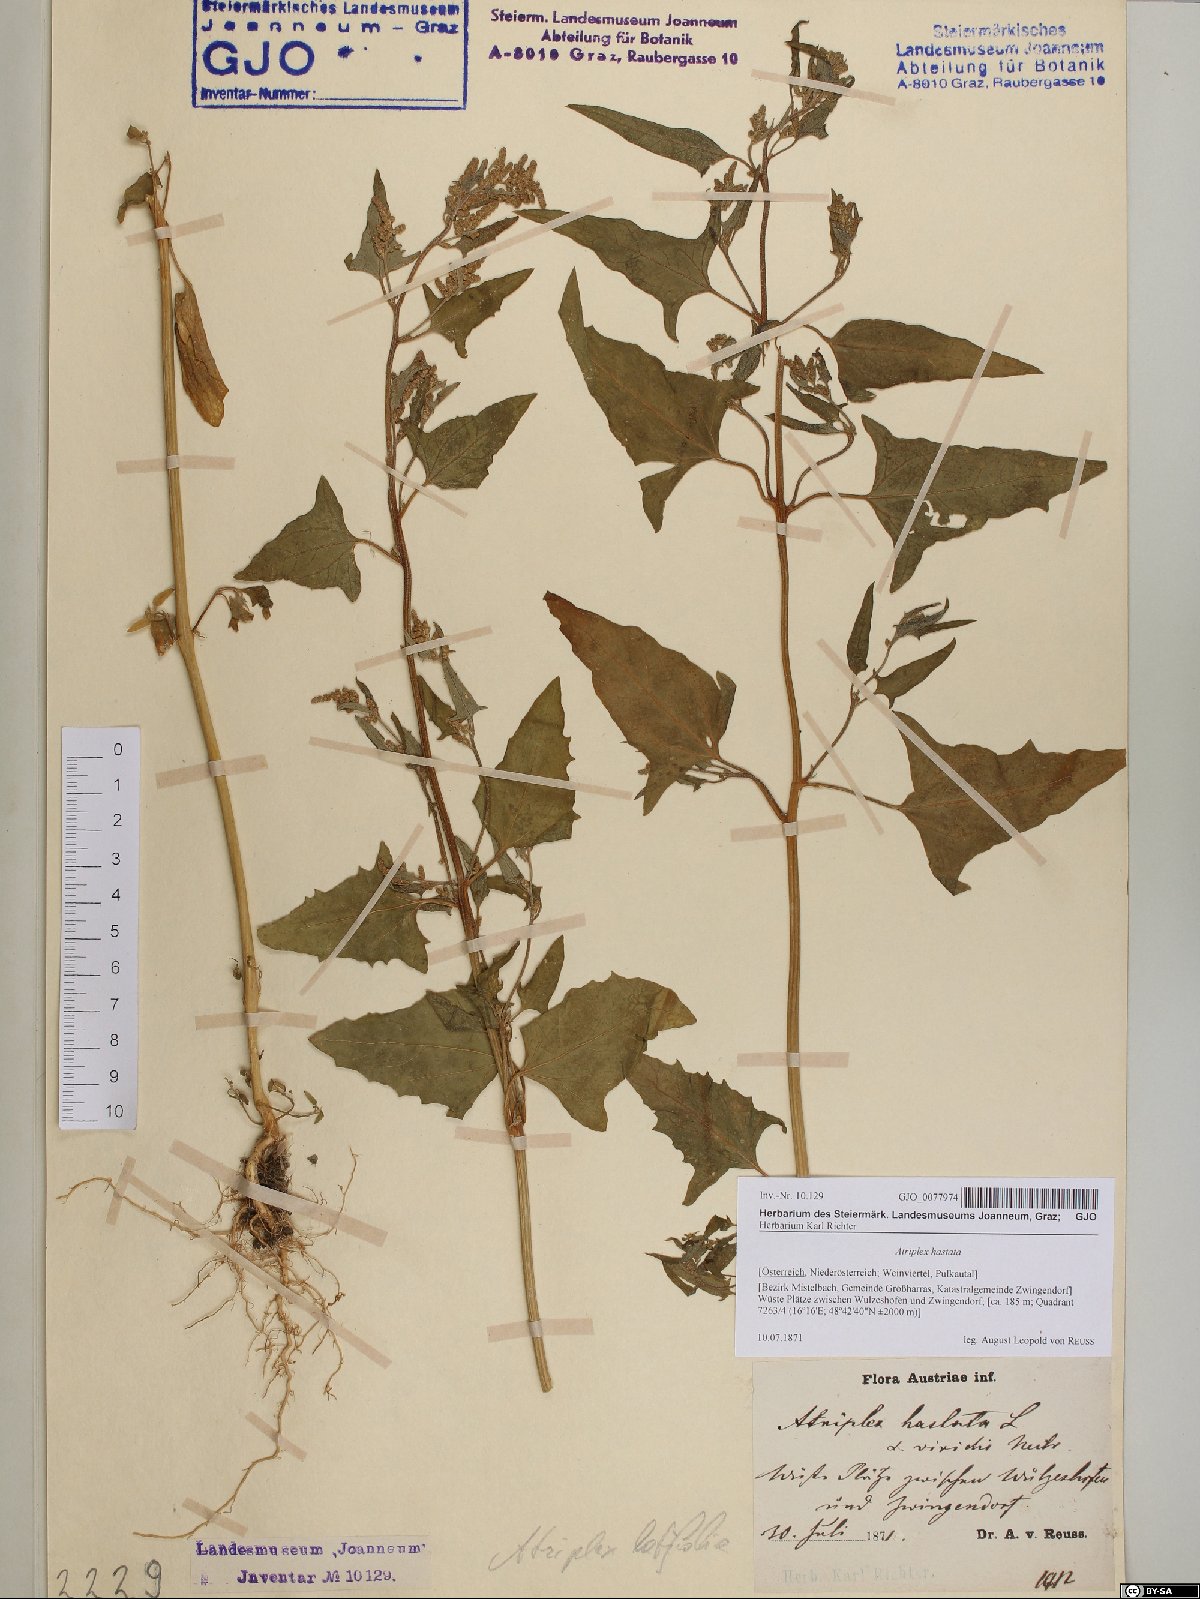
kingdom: Plantae
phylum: Tracheophyta
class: Magnoliopsida
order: Caryophyllales
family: Amaranthaceae
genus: Atriplex
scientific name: Atriplex calotheca
